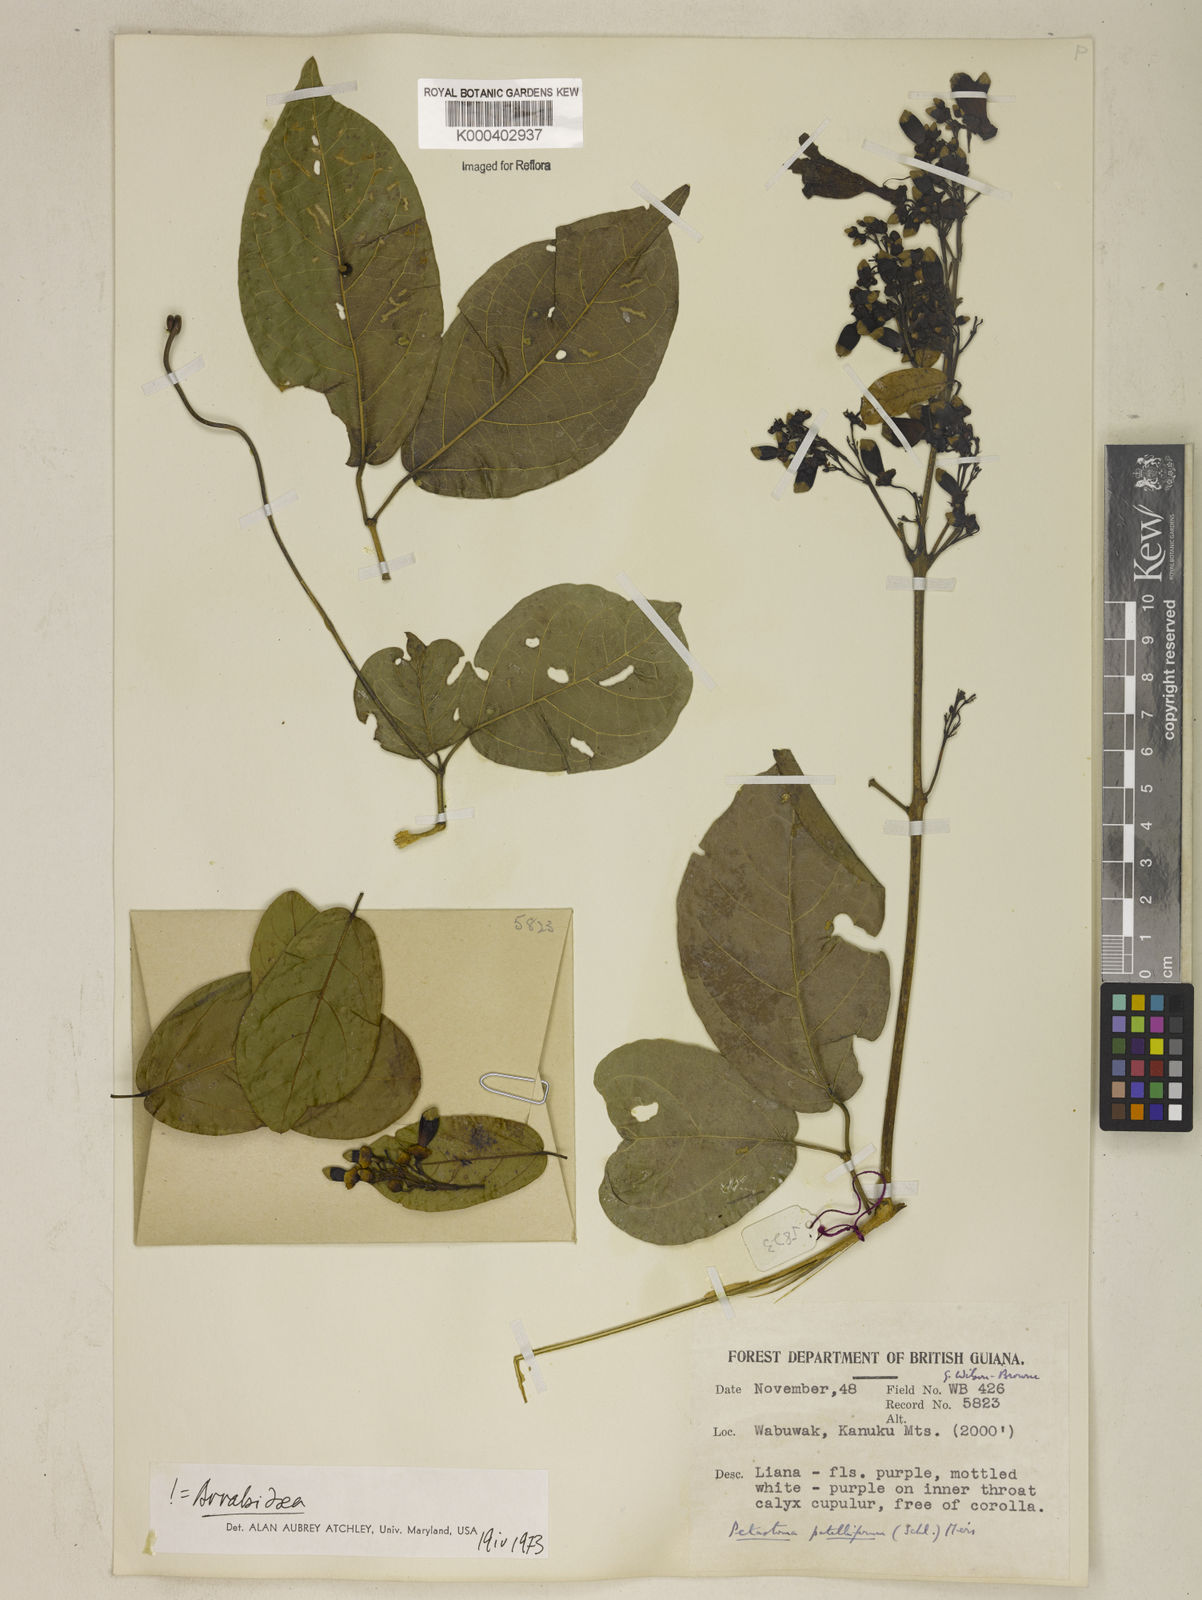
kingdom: Plantae
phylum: Tracheophyta
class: Magnoliopsida
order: Lamiales
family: Bignoniaceae
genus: Fridericia
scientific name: Fridericia patellifera
